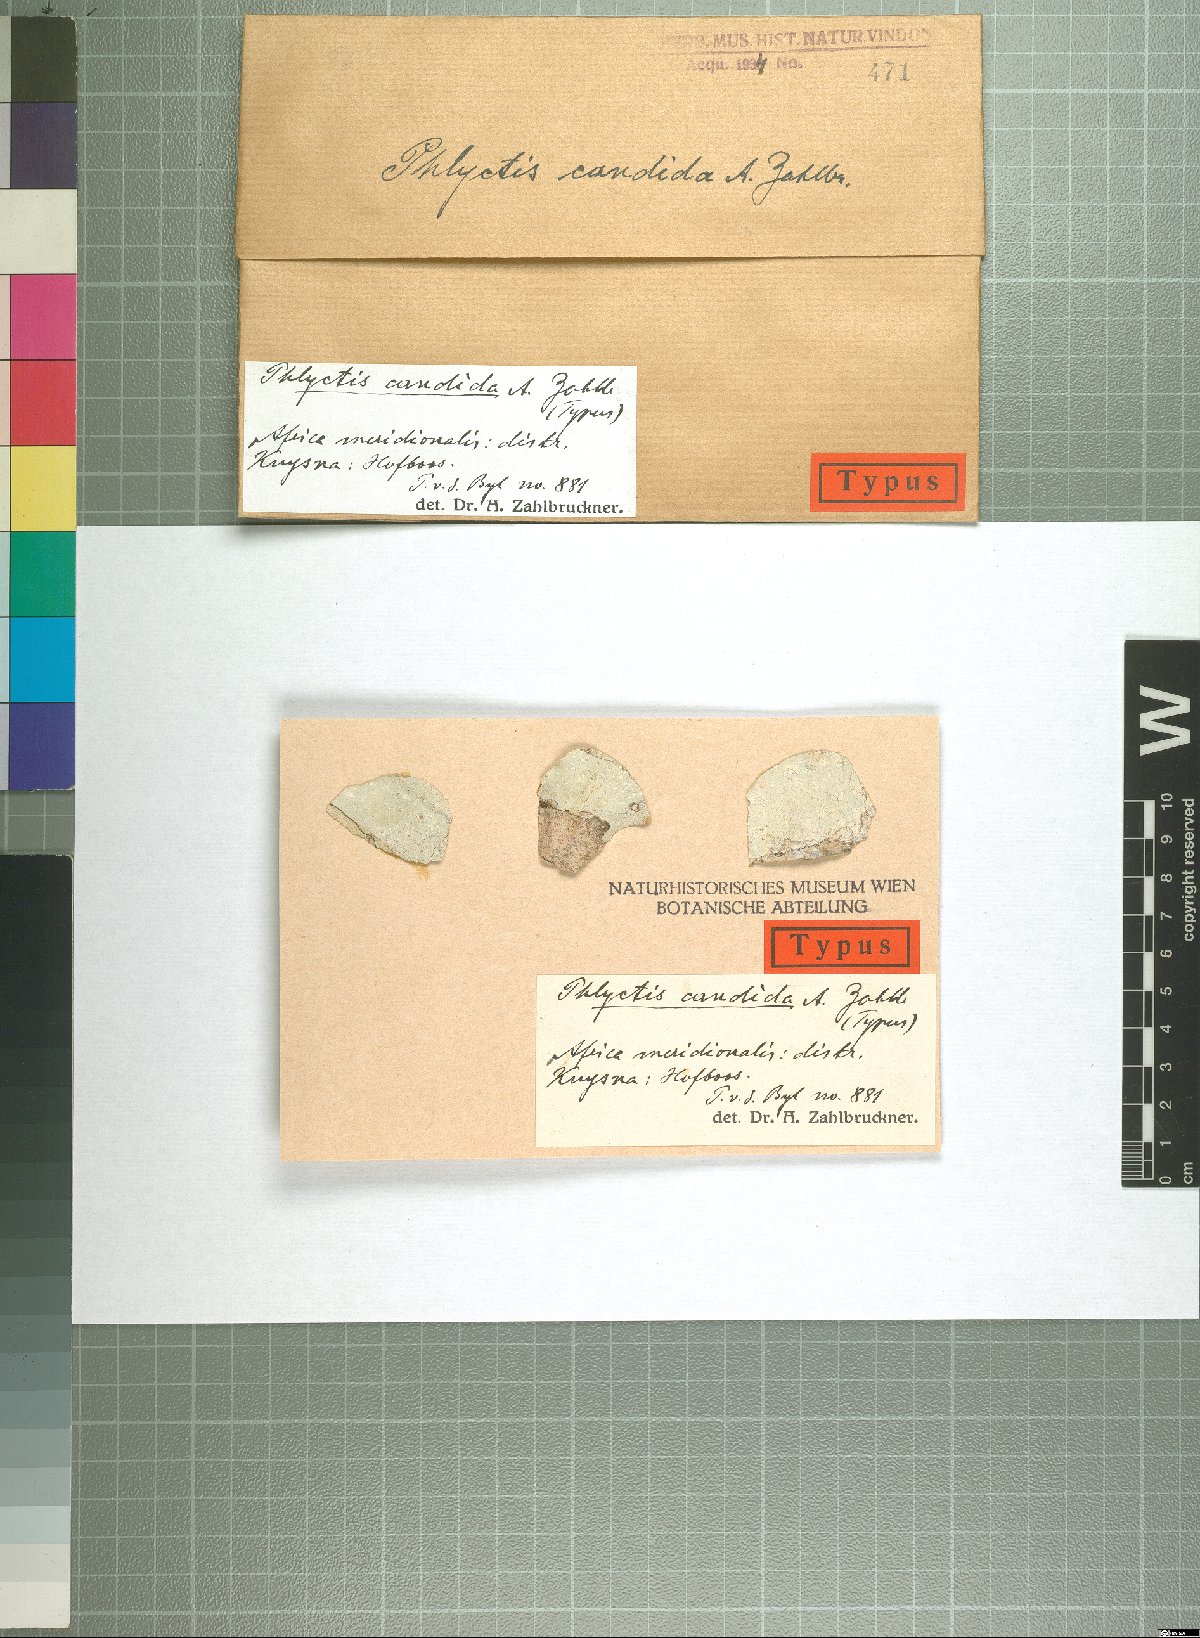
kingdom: Fungi
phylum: Ascomycota
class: Lecanoromycetes
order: Ostropales
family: Phlyctidaceae
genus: Phlyctis
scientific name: Phlyctis
